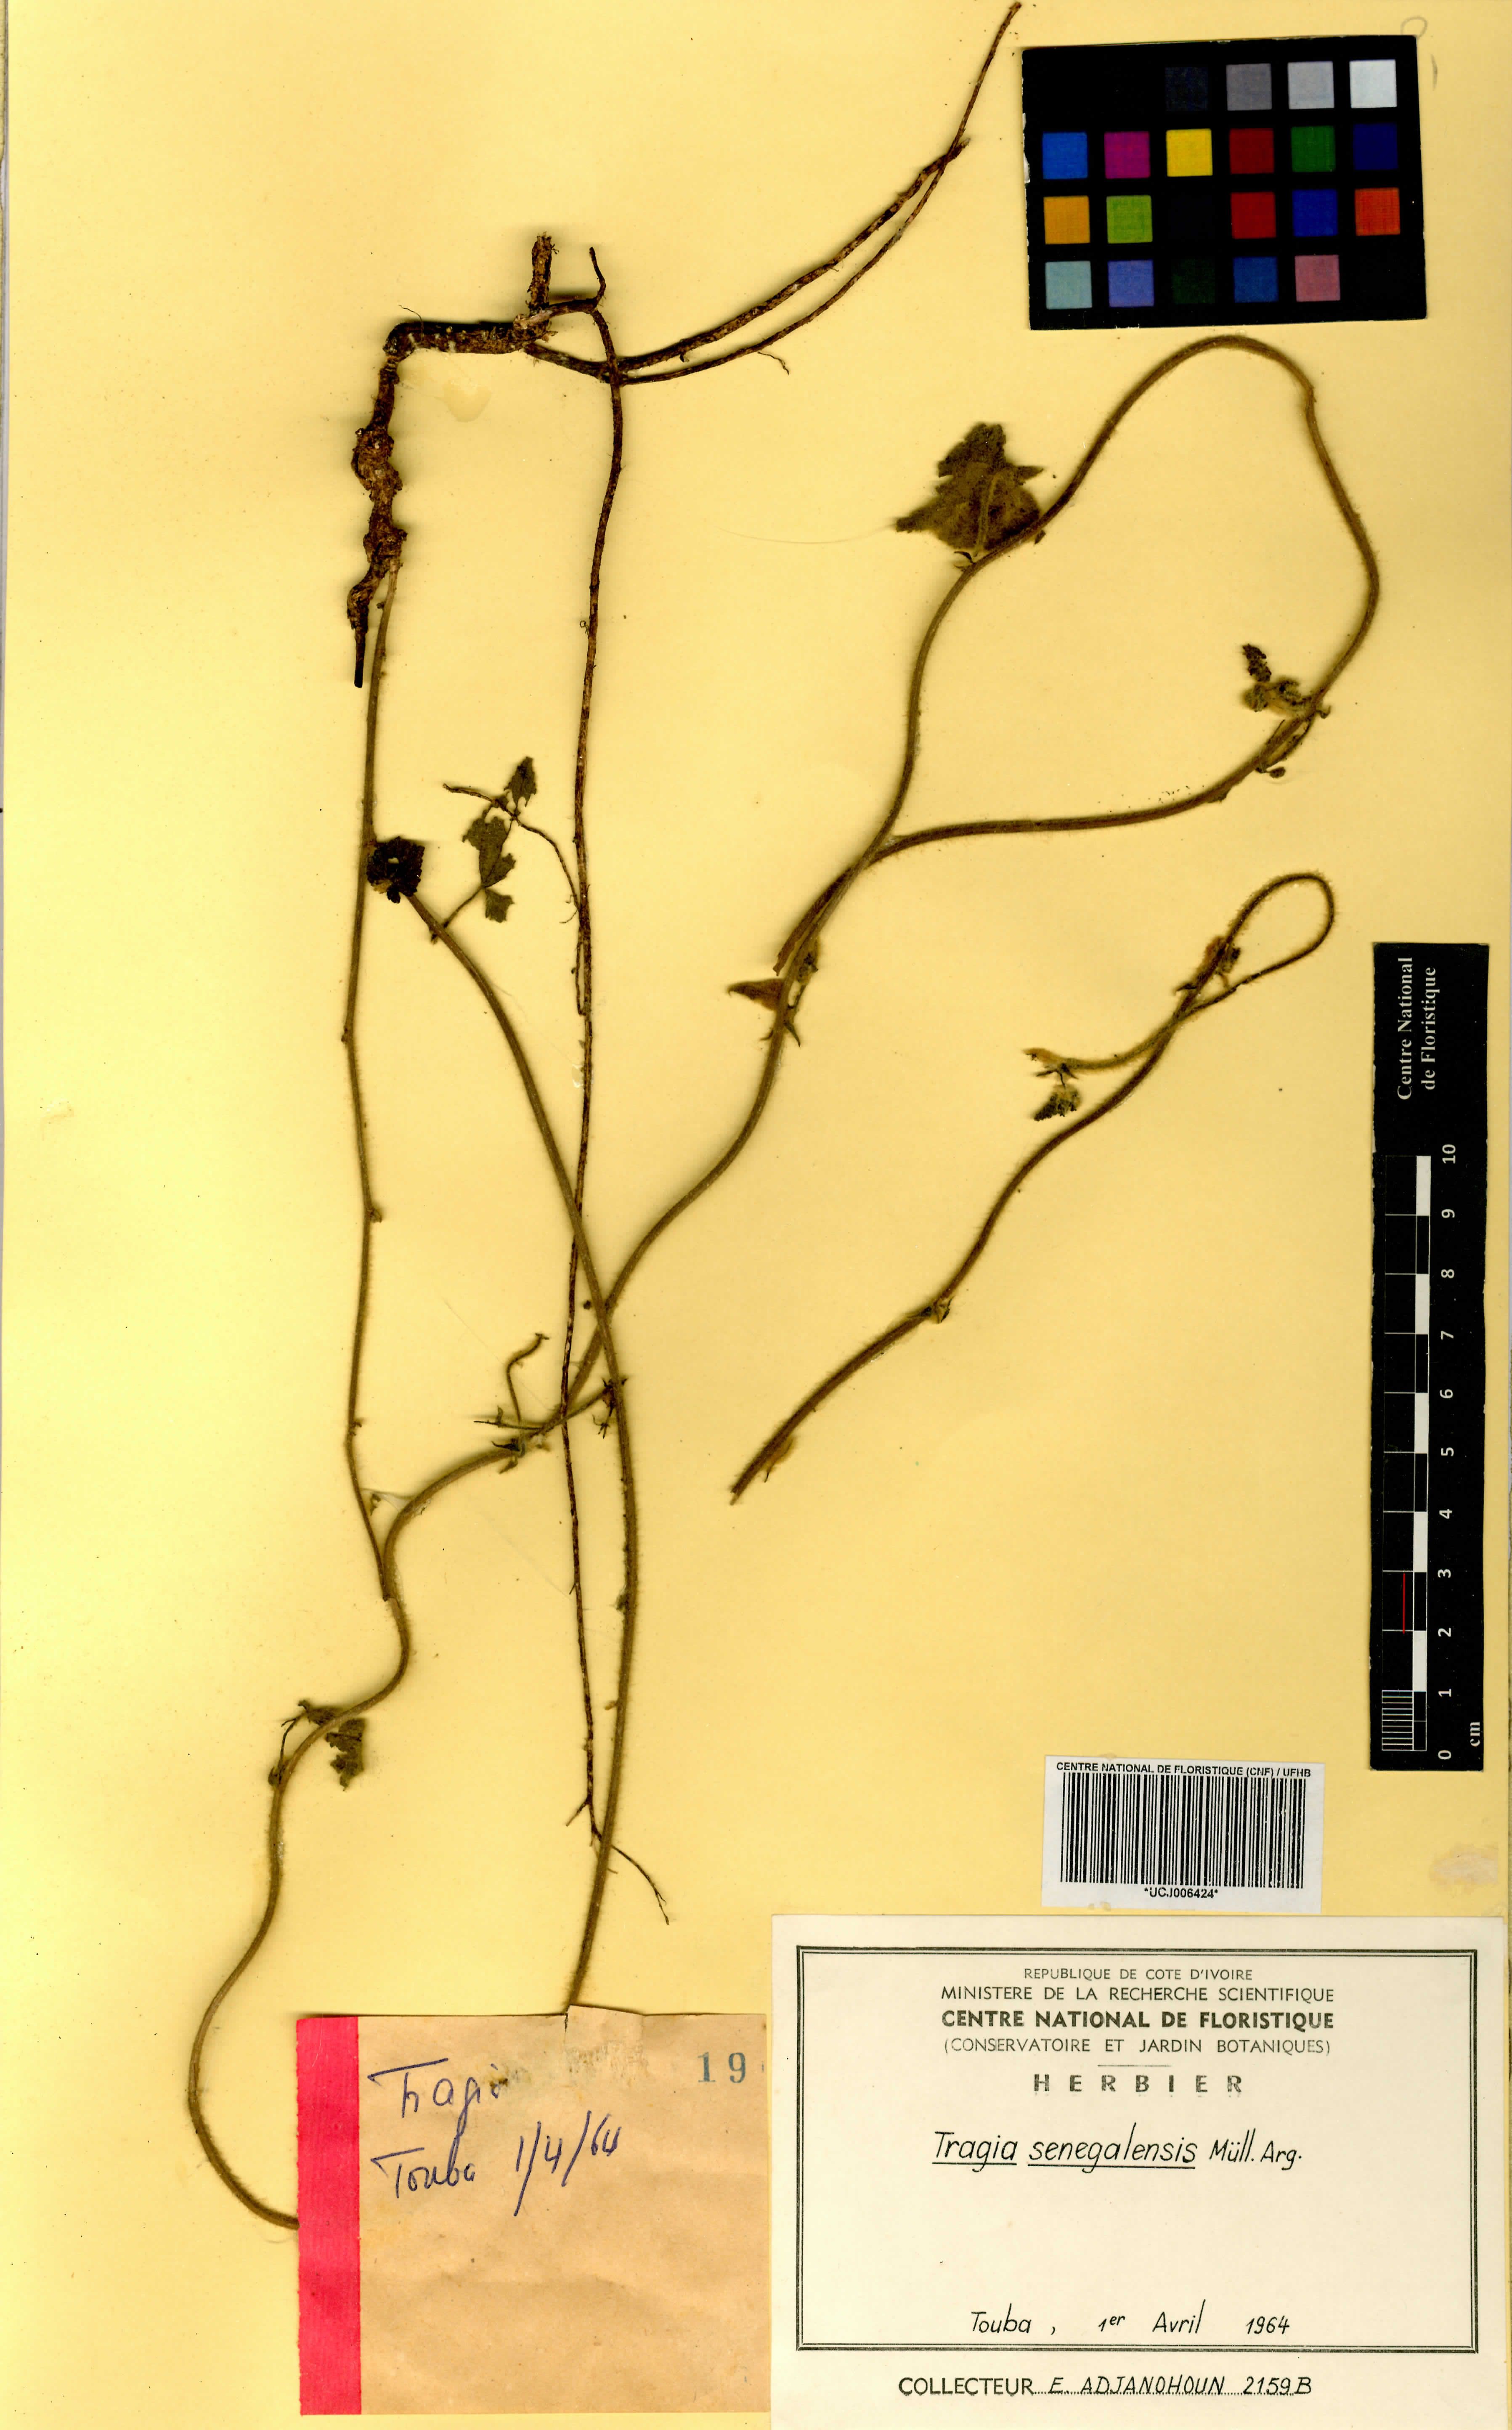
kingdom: Plantae
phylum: Tracheophyta
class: Magnoliopsida
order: Malpighiales
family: Euphorbiaceae
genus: Tragia
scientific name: Tragia senegalensis
